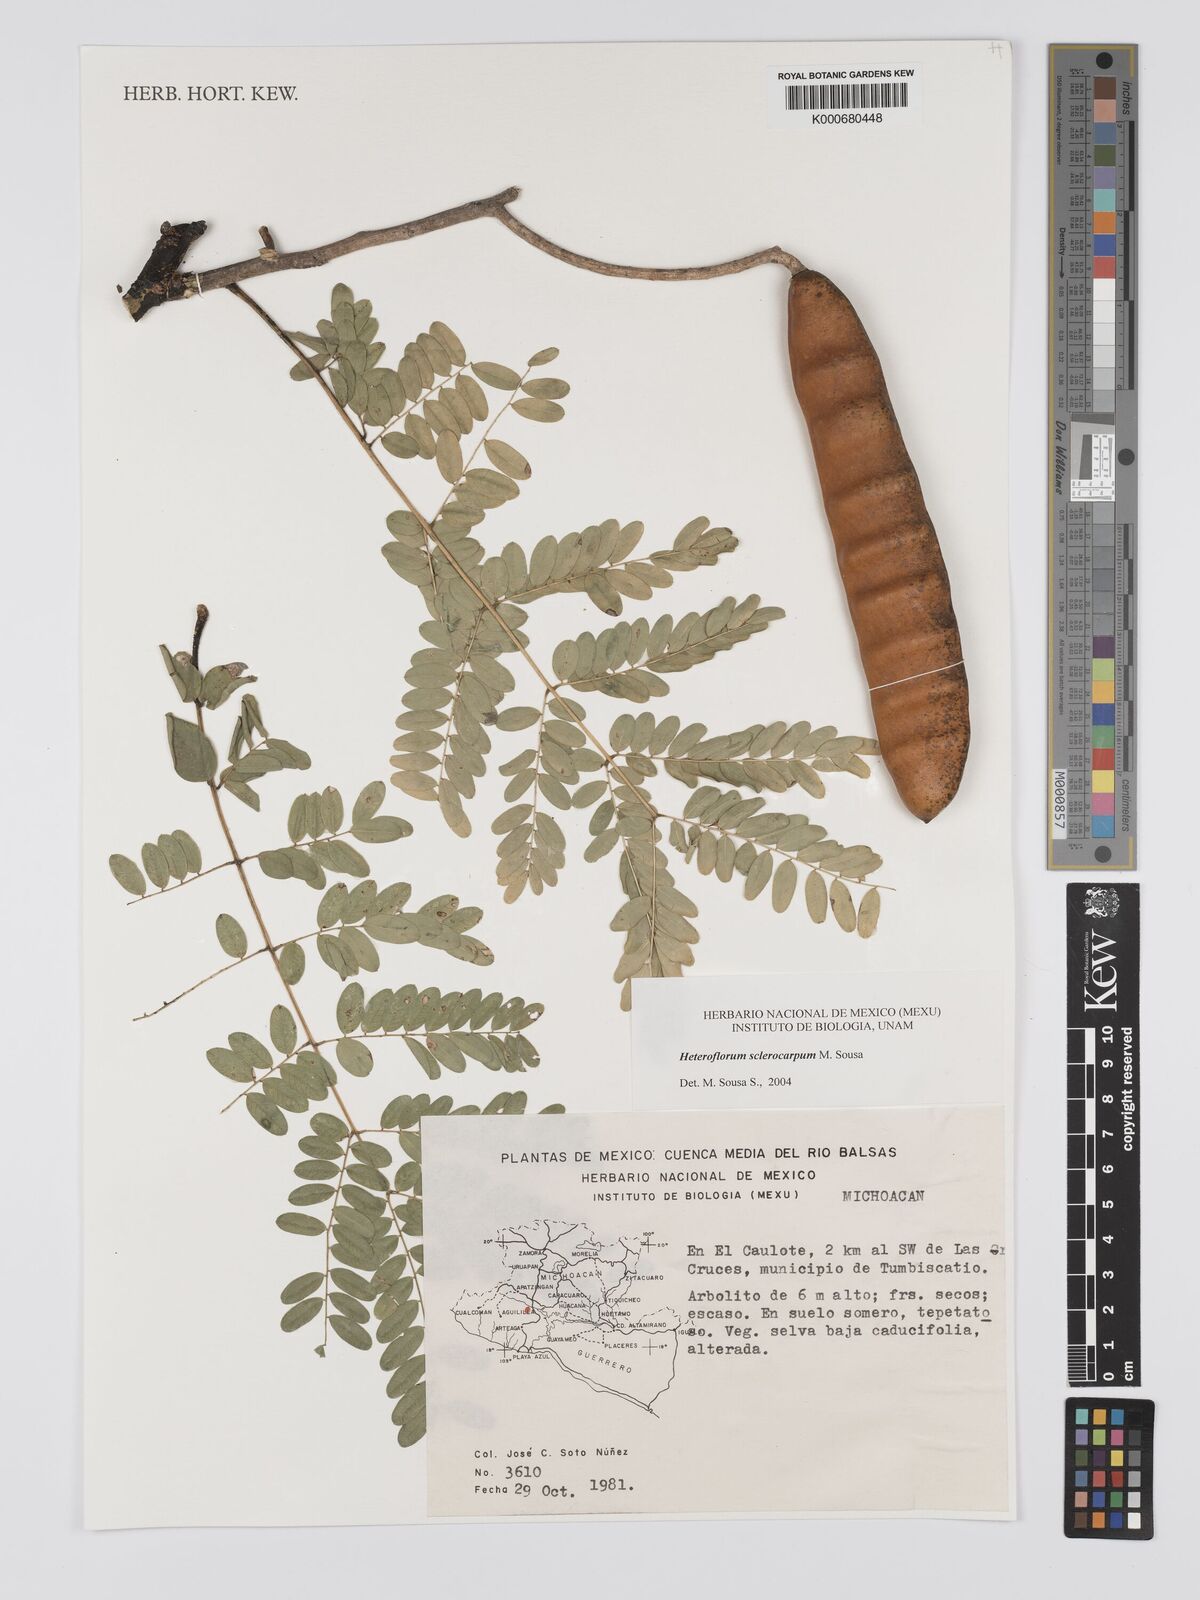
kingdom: Plantae
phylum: Tracheophyta
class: Magnoliopsida
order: Fabales
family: Fabaceae
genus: Heteroflorum
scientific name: Heteroflorum sclerocarpum
